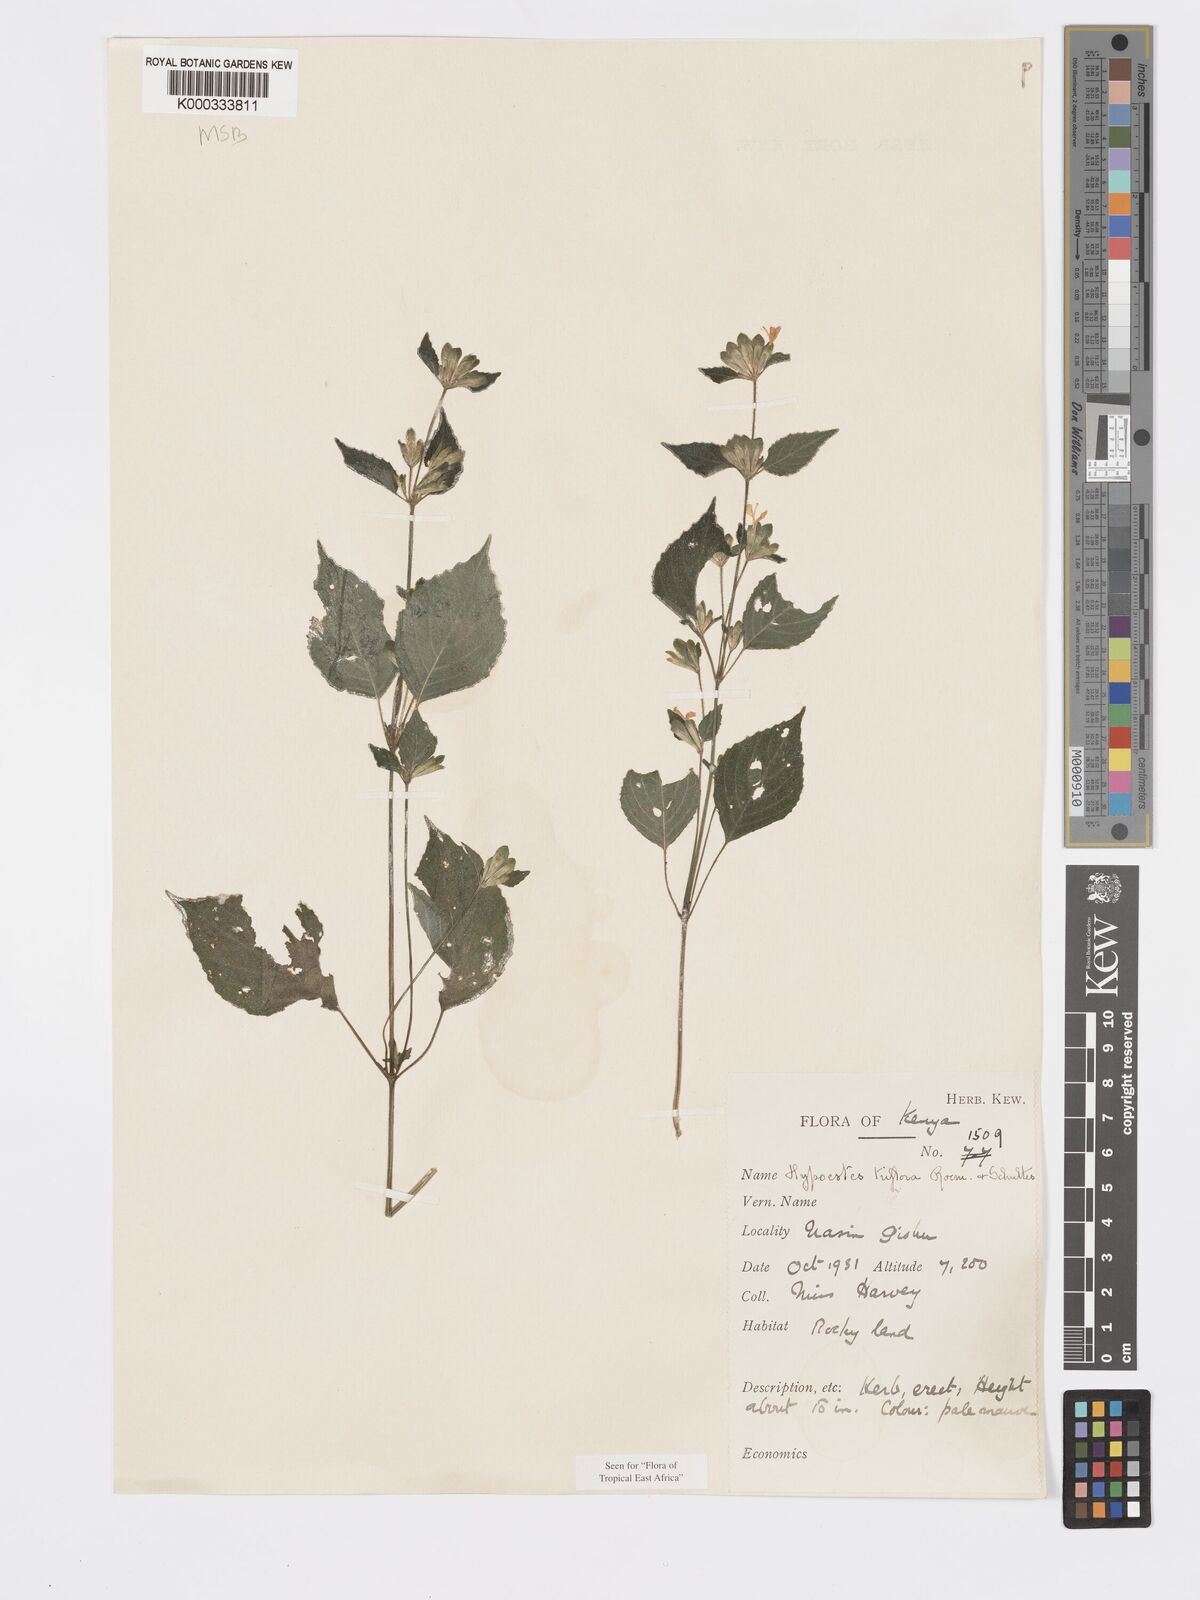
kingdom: Plantae
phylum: Tracheophyta
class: Magnoliopsida
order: Lamiales
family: Acanthaceae
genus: Hypoestes
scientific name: Hypoestes triflora
